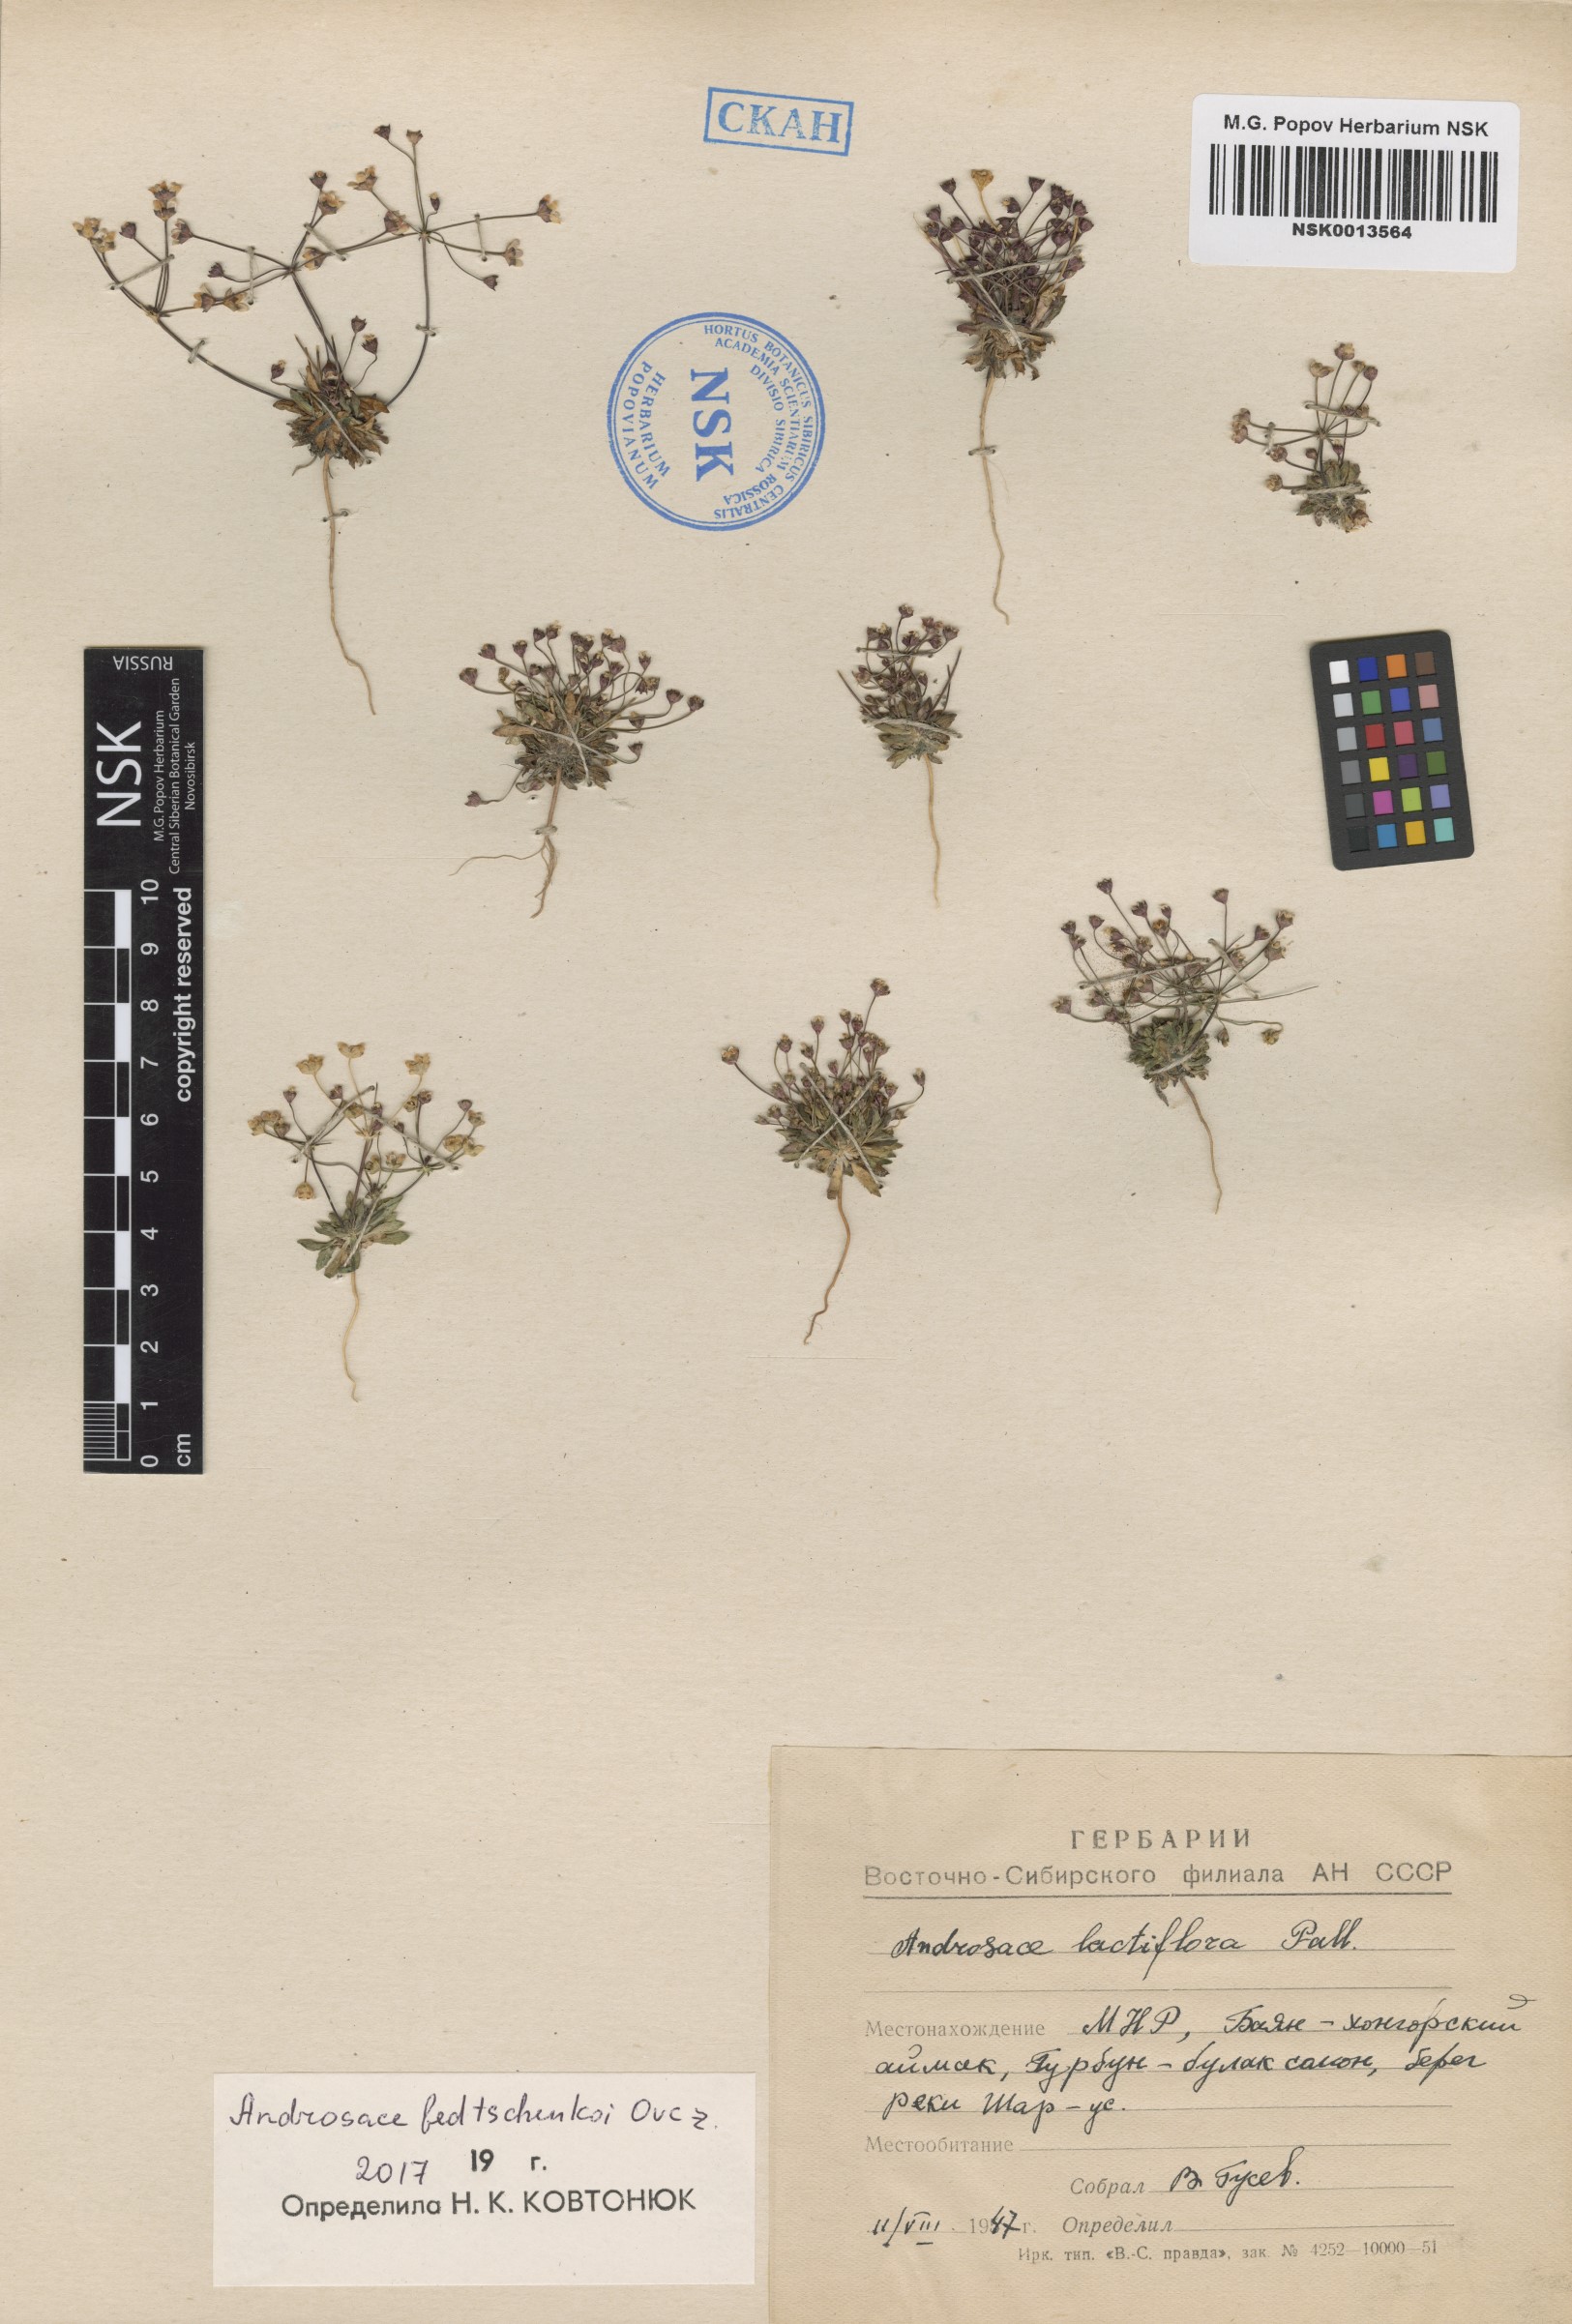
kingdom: Plantae
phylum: Tracheophyta
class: Magnoliopsida
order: Ericales
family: Primulaceae
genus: Androsace
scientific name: Androsace fedtschenkoi
